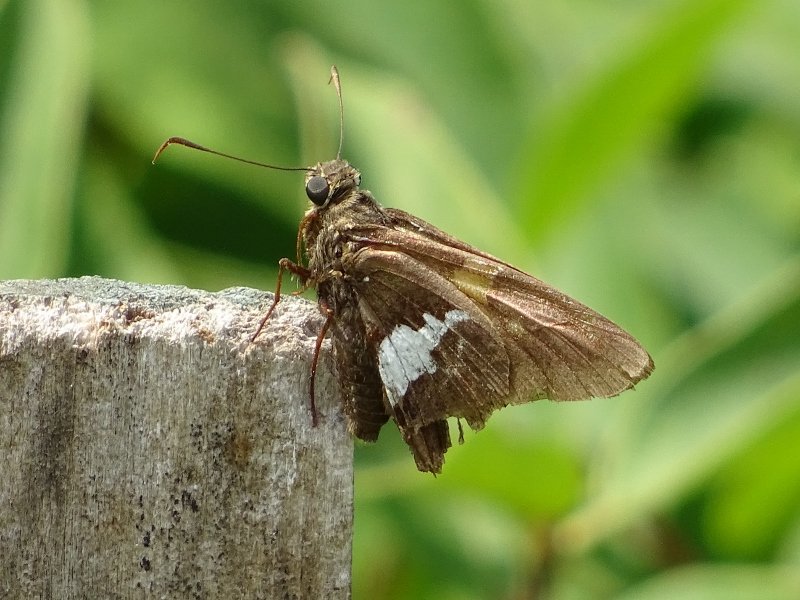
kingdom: Animalia
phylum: Arthropoda
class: Insecta
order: Lepidoptera
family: Hesperiidae
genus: Epargyreus
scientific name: Epargyreus clarus
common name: Silver-spotted Skipper
